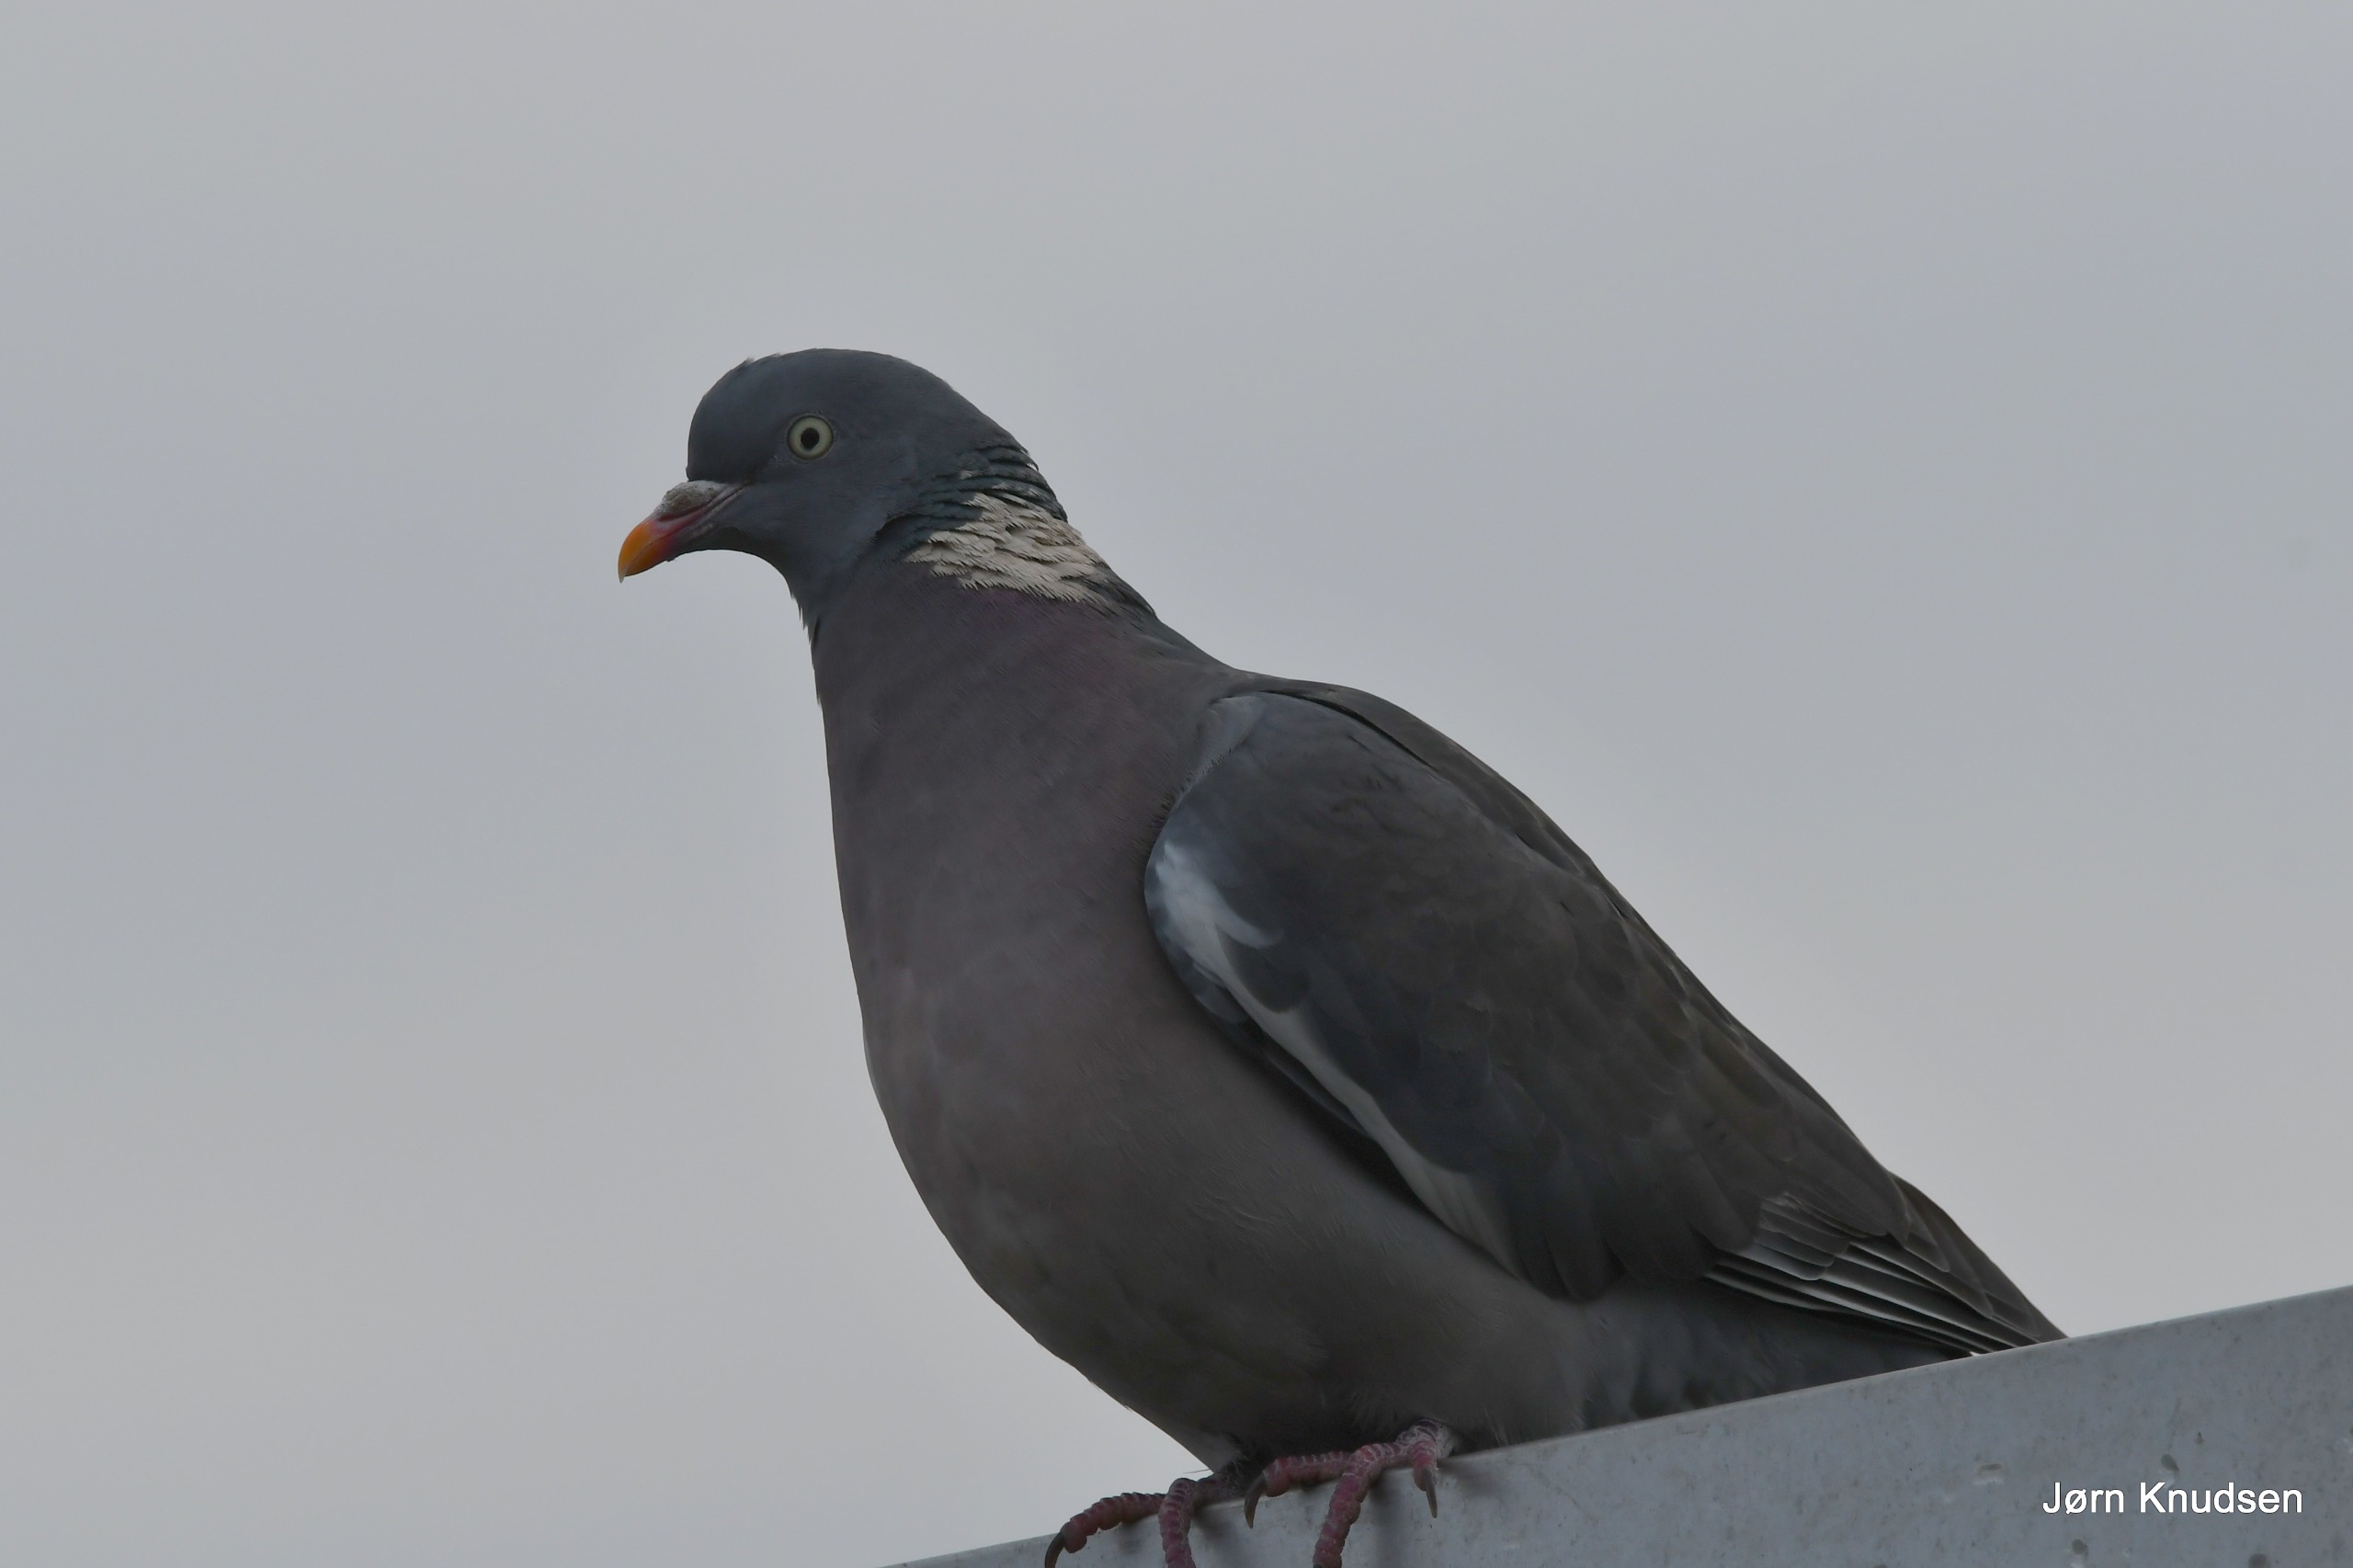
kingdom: Animalia
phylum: Chordata
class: Aves
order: Columbiformes
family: Columbidae
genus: Columba
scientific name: Columba palumbus
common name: Ringdue
